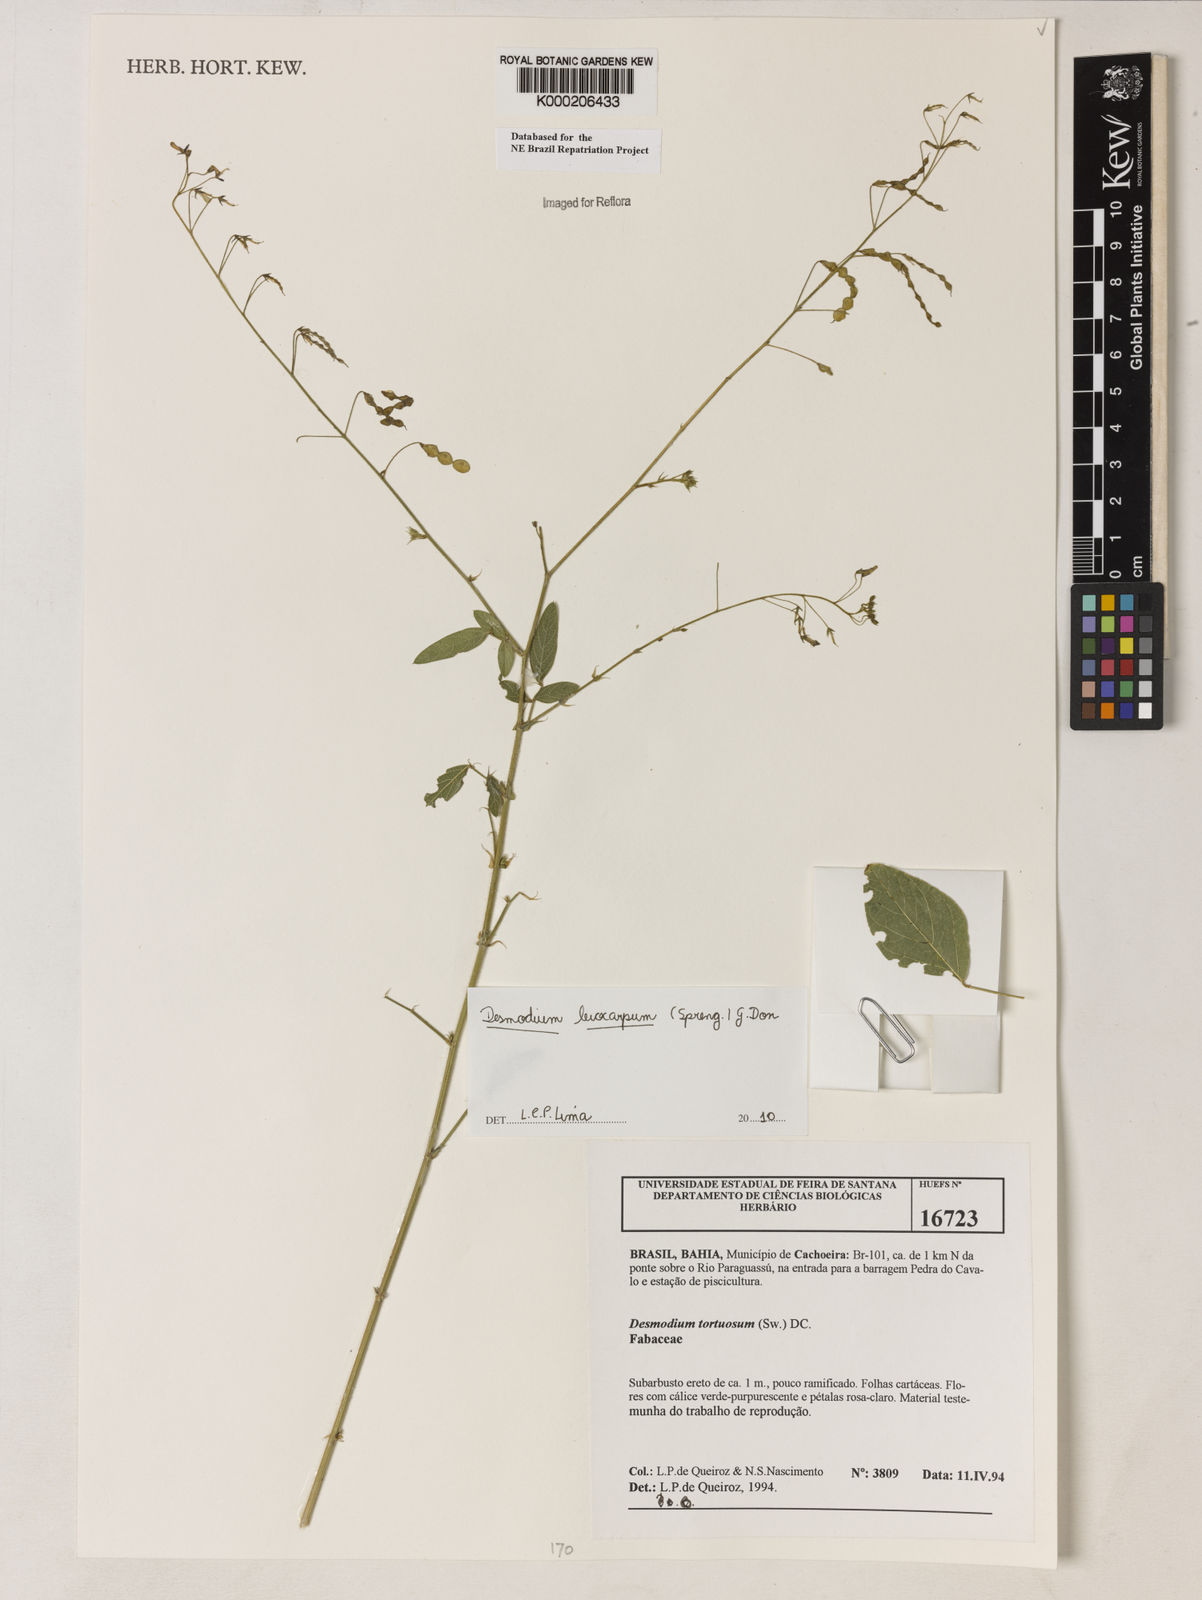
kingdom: Plantae
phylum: Tracheophyta
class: Magnoliopsida
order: Fabales
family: Fabaceae
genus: Desmodium
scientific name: Desmodium tortuosum
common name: Dixie ticktrefoil
